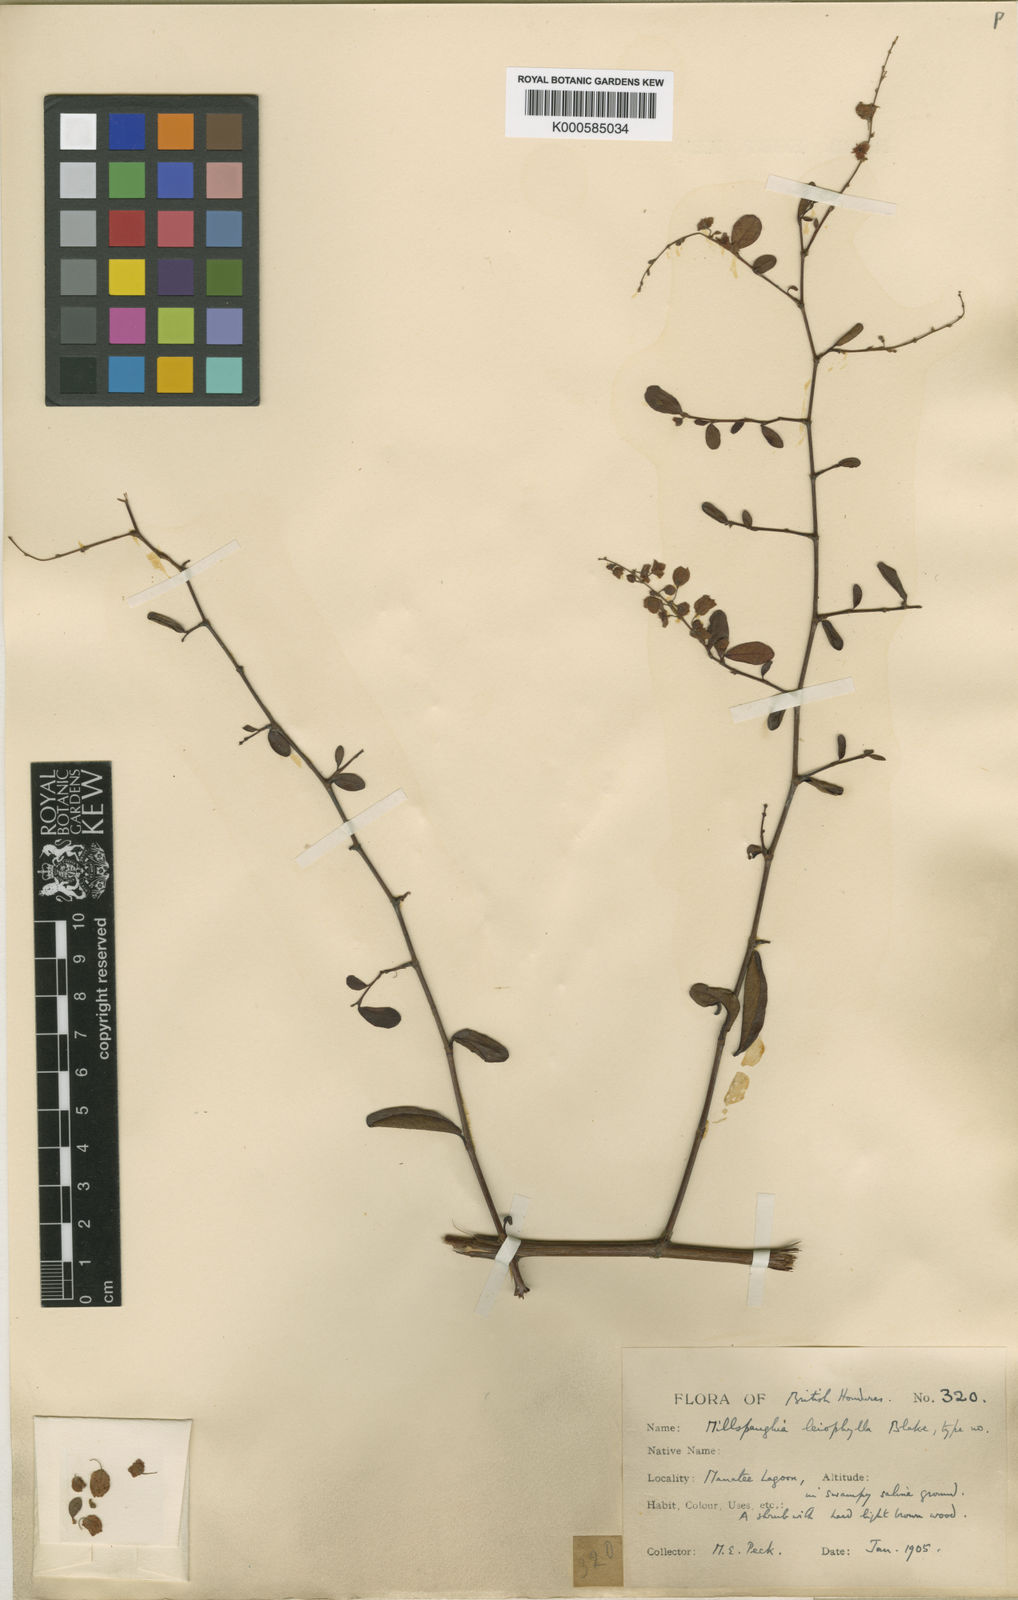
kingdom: Plantae
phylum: Tracheophyta
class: Magnoliopsida
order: Caryophyllales
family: Polygonaceae
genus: Gymnopodium
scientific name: Gymnopodium
